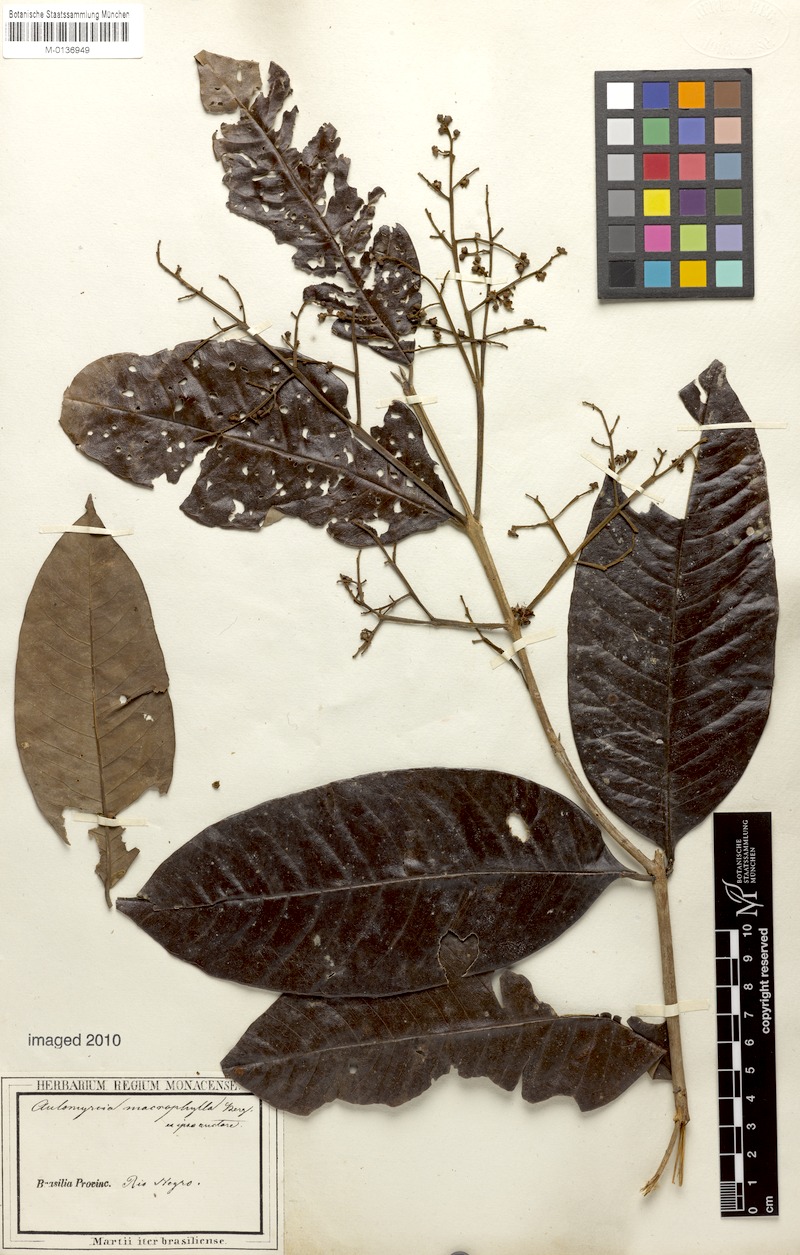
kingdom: Plantae
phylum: Tracheophyta
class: Magnoliopsida
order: Myrtales
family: Myrtaceae
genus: Myrcia
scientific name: Myrcia splendens
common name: Surinam cherry
